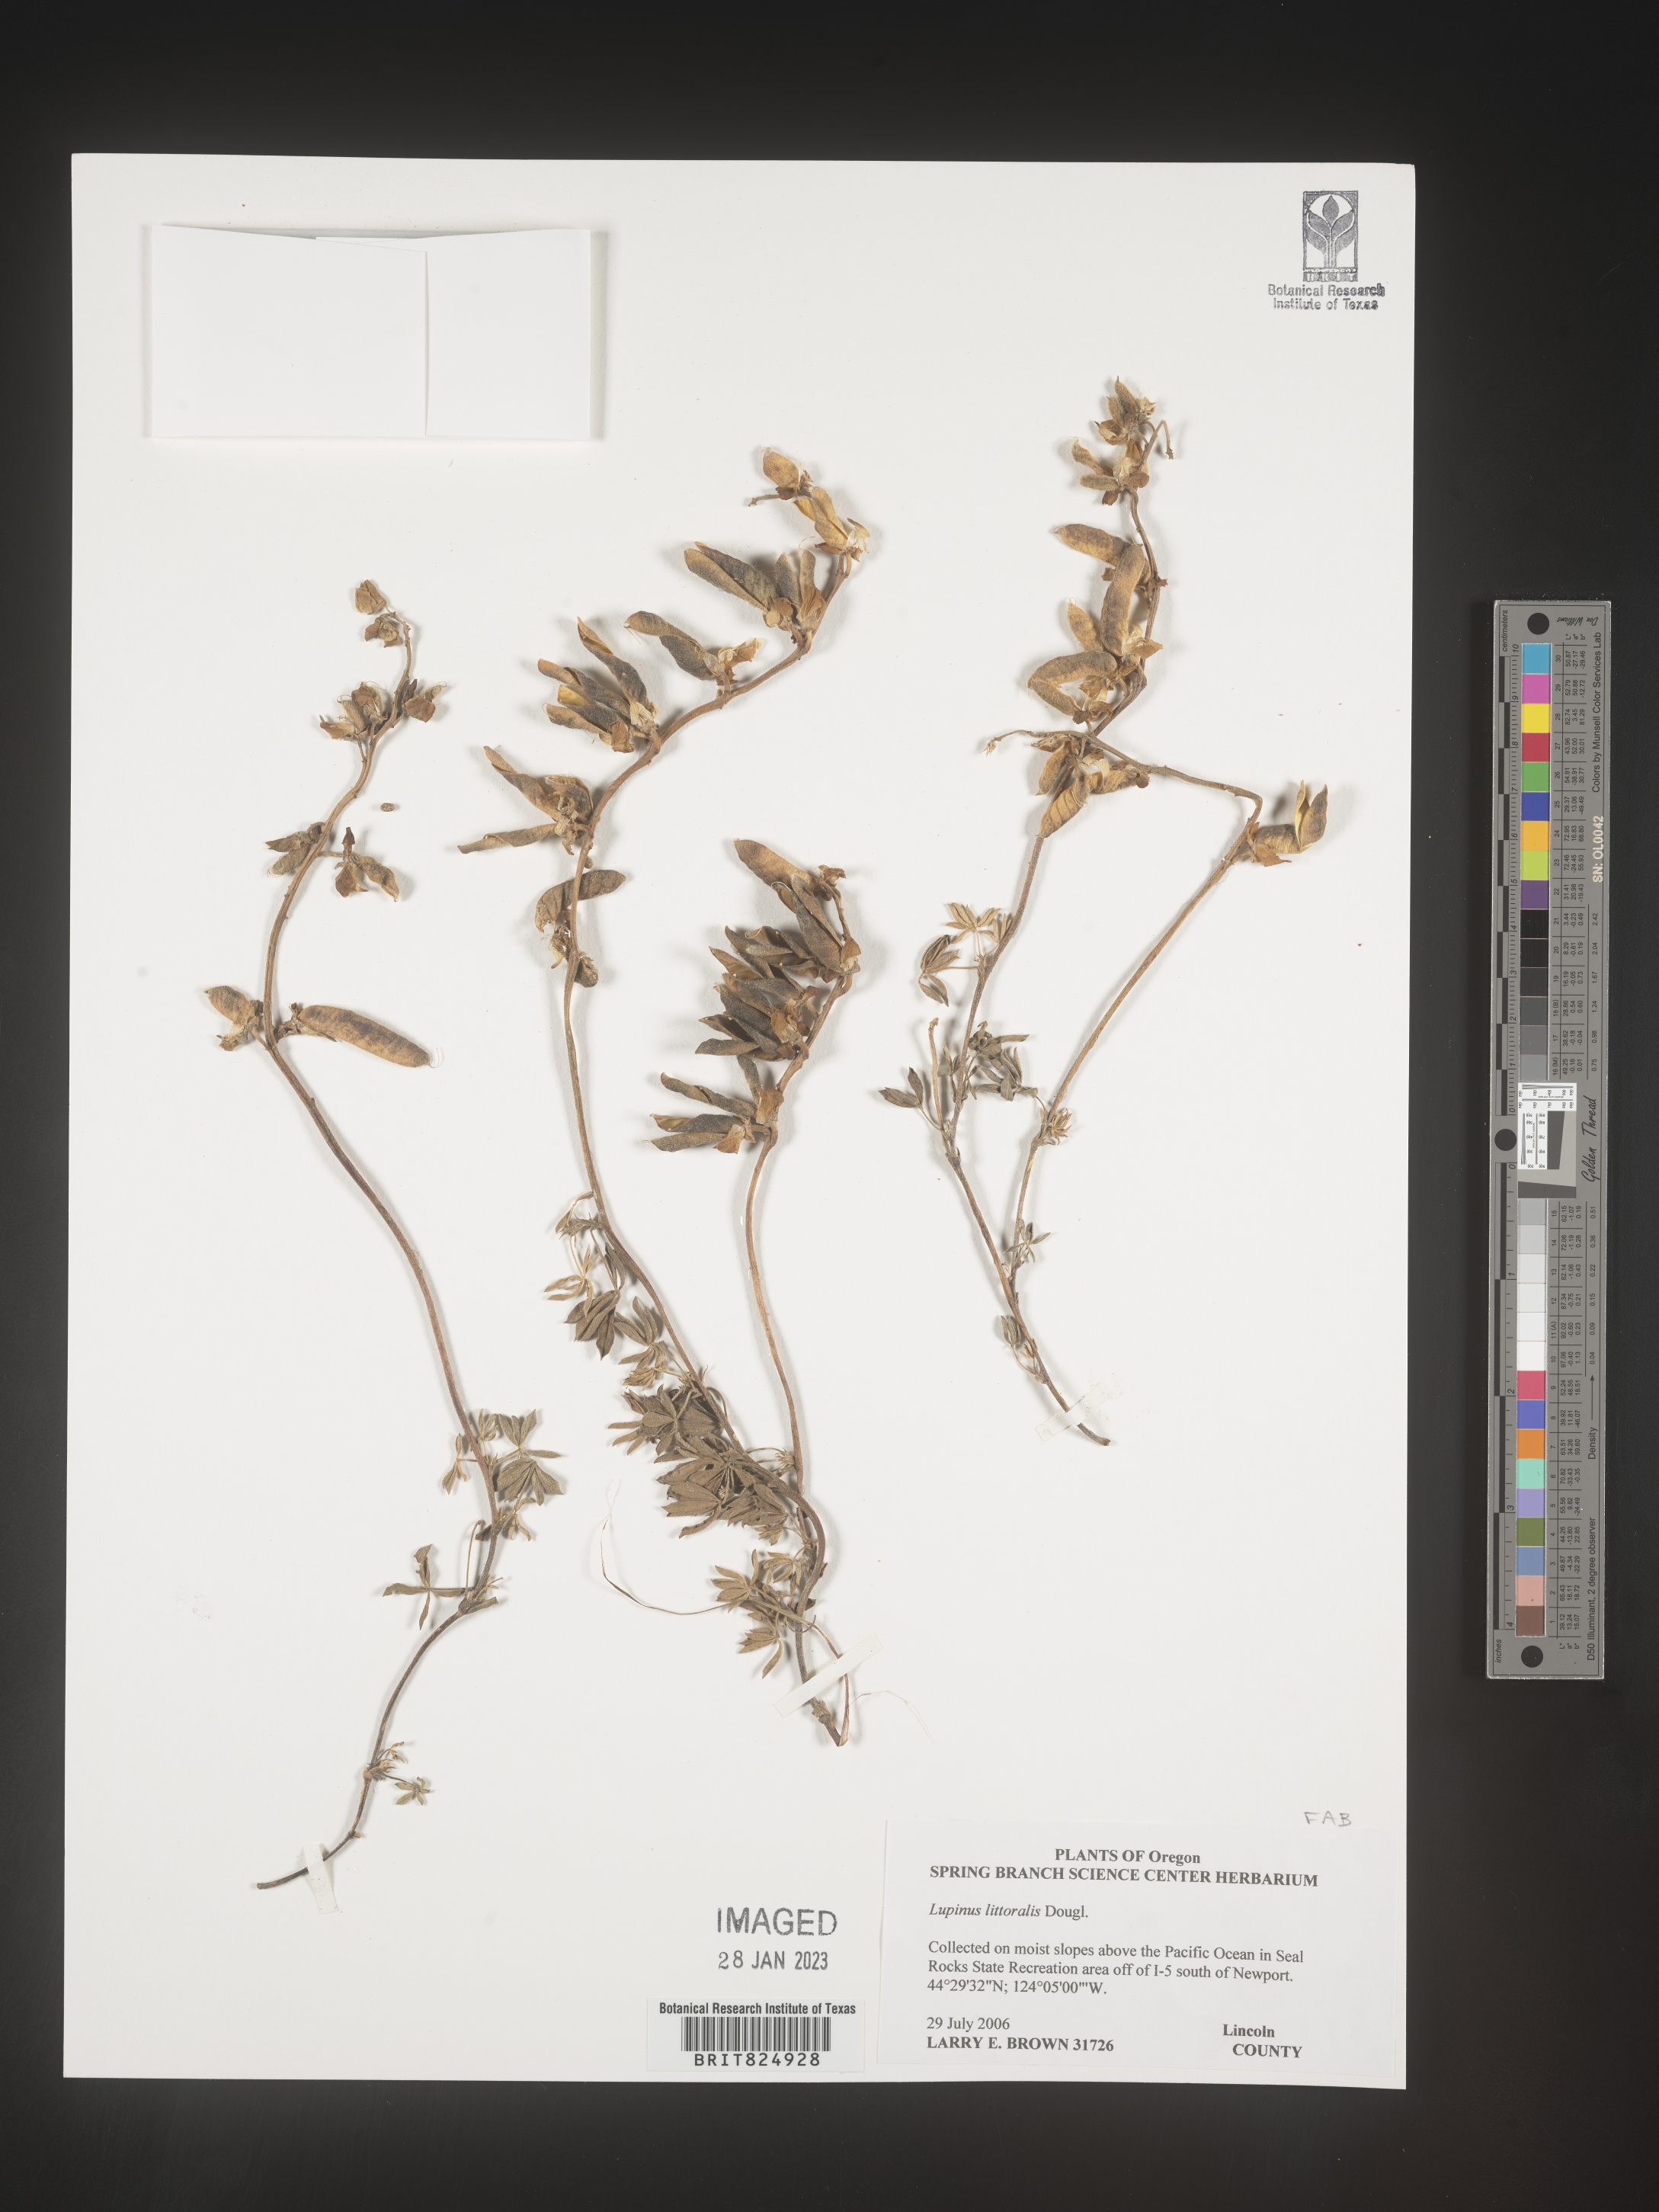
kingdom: Plantae
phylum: Tracheophyta
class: Magnoliopsida
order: Fabales
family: Fabaceae
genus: Lupinus
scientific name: Lupinus
